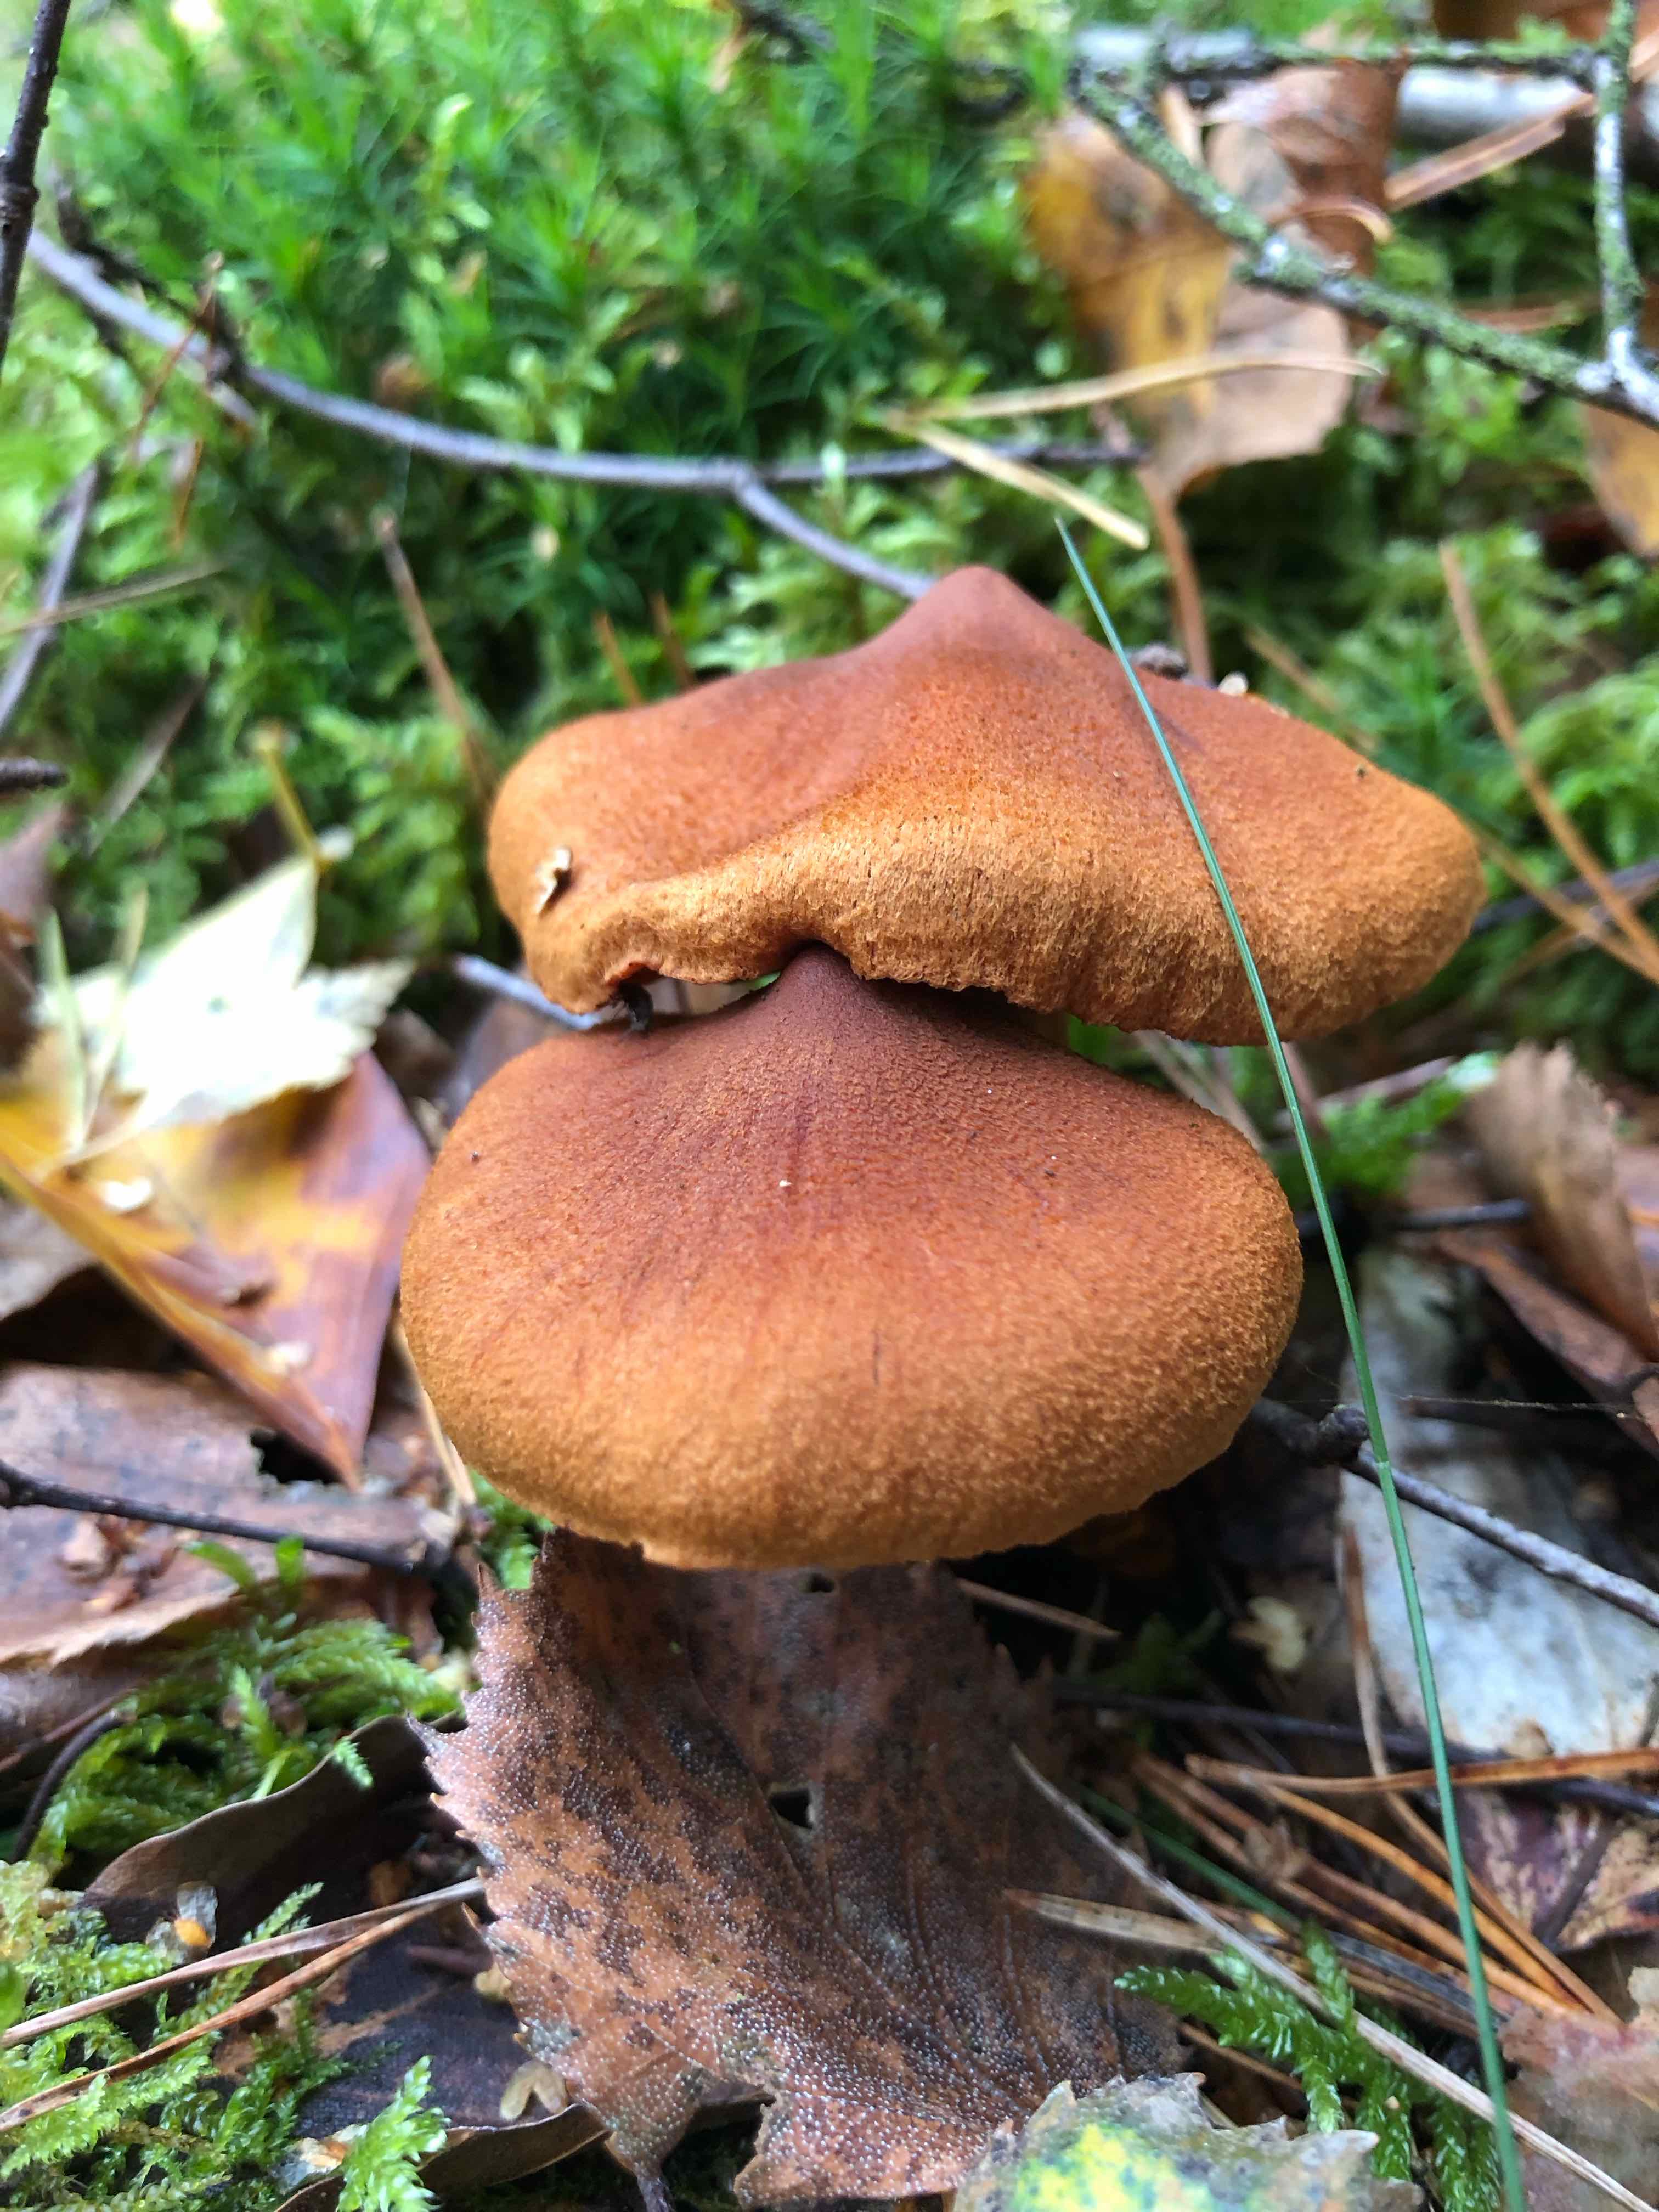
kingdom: Fungi
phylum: Basidiomycota
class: Agaricomycetes
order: Agaricales
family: Cortinariaceae
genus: Cortinarius
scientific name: Cortinarius rubellus
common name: puklet gift-slørhat
